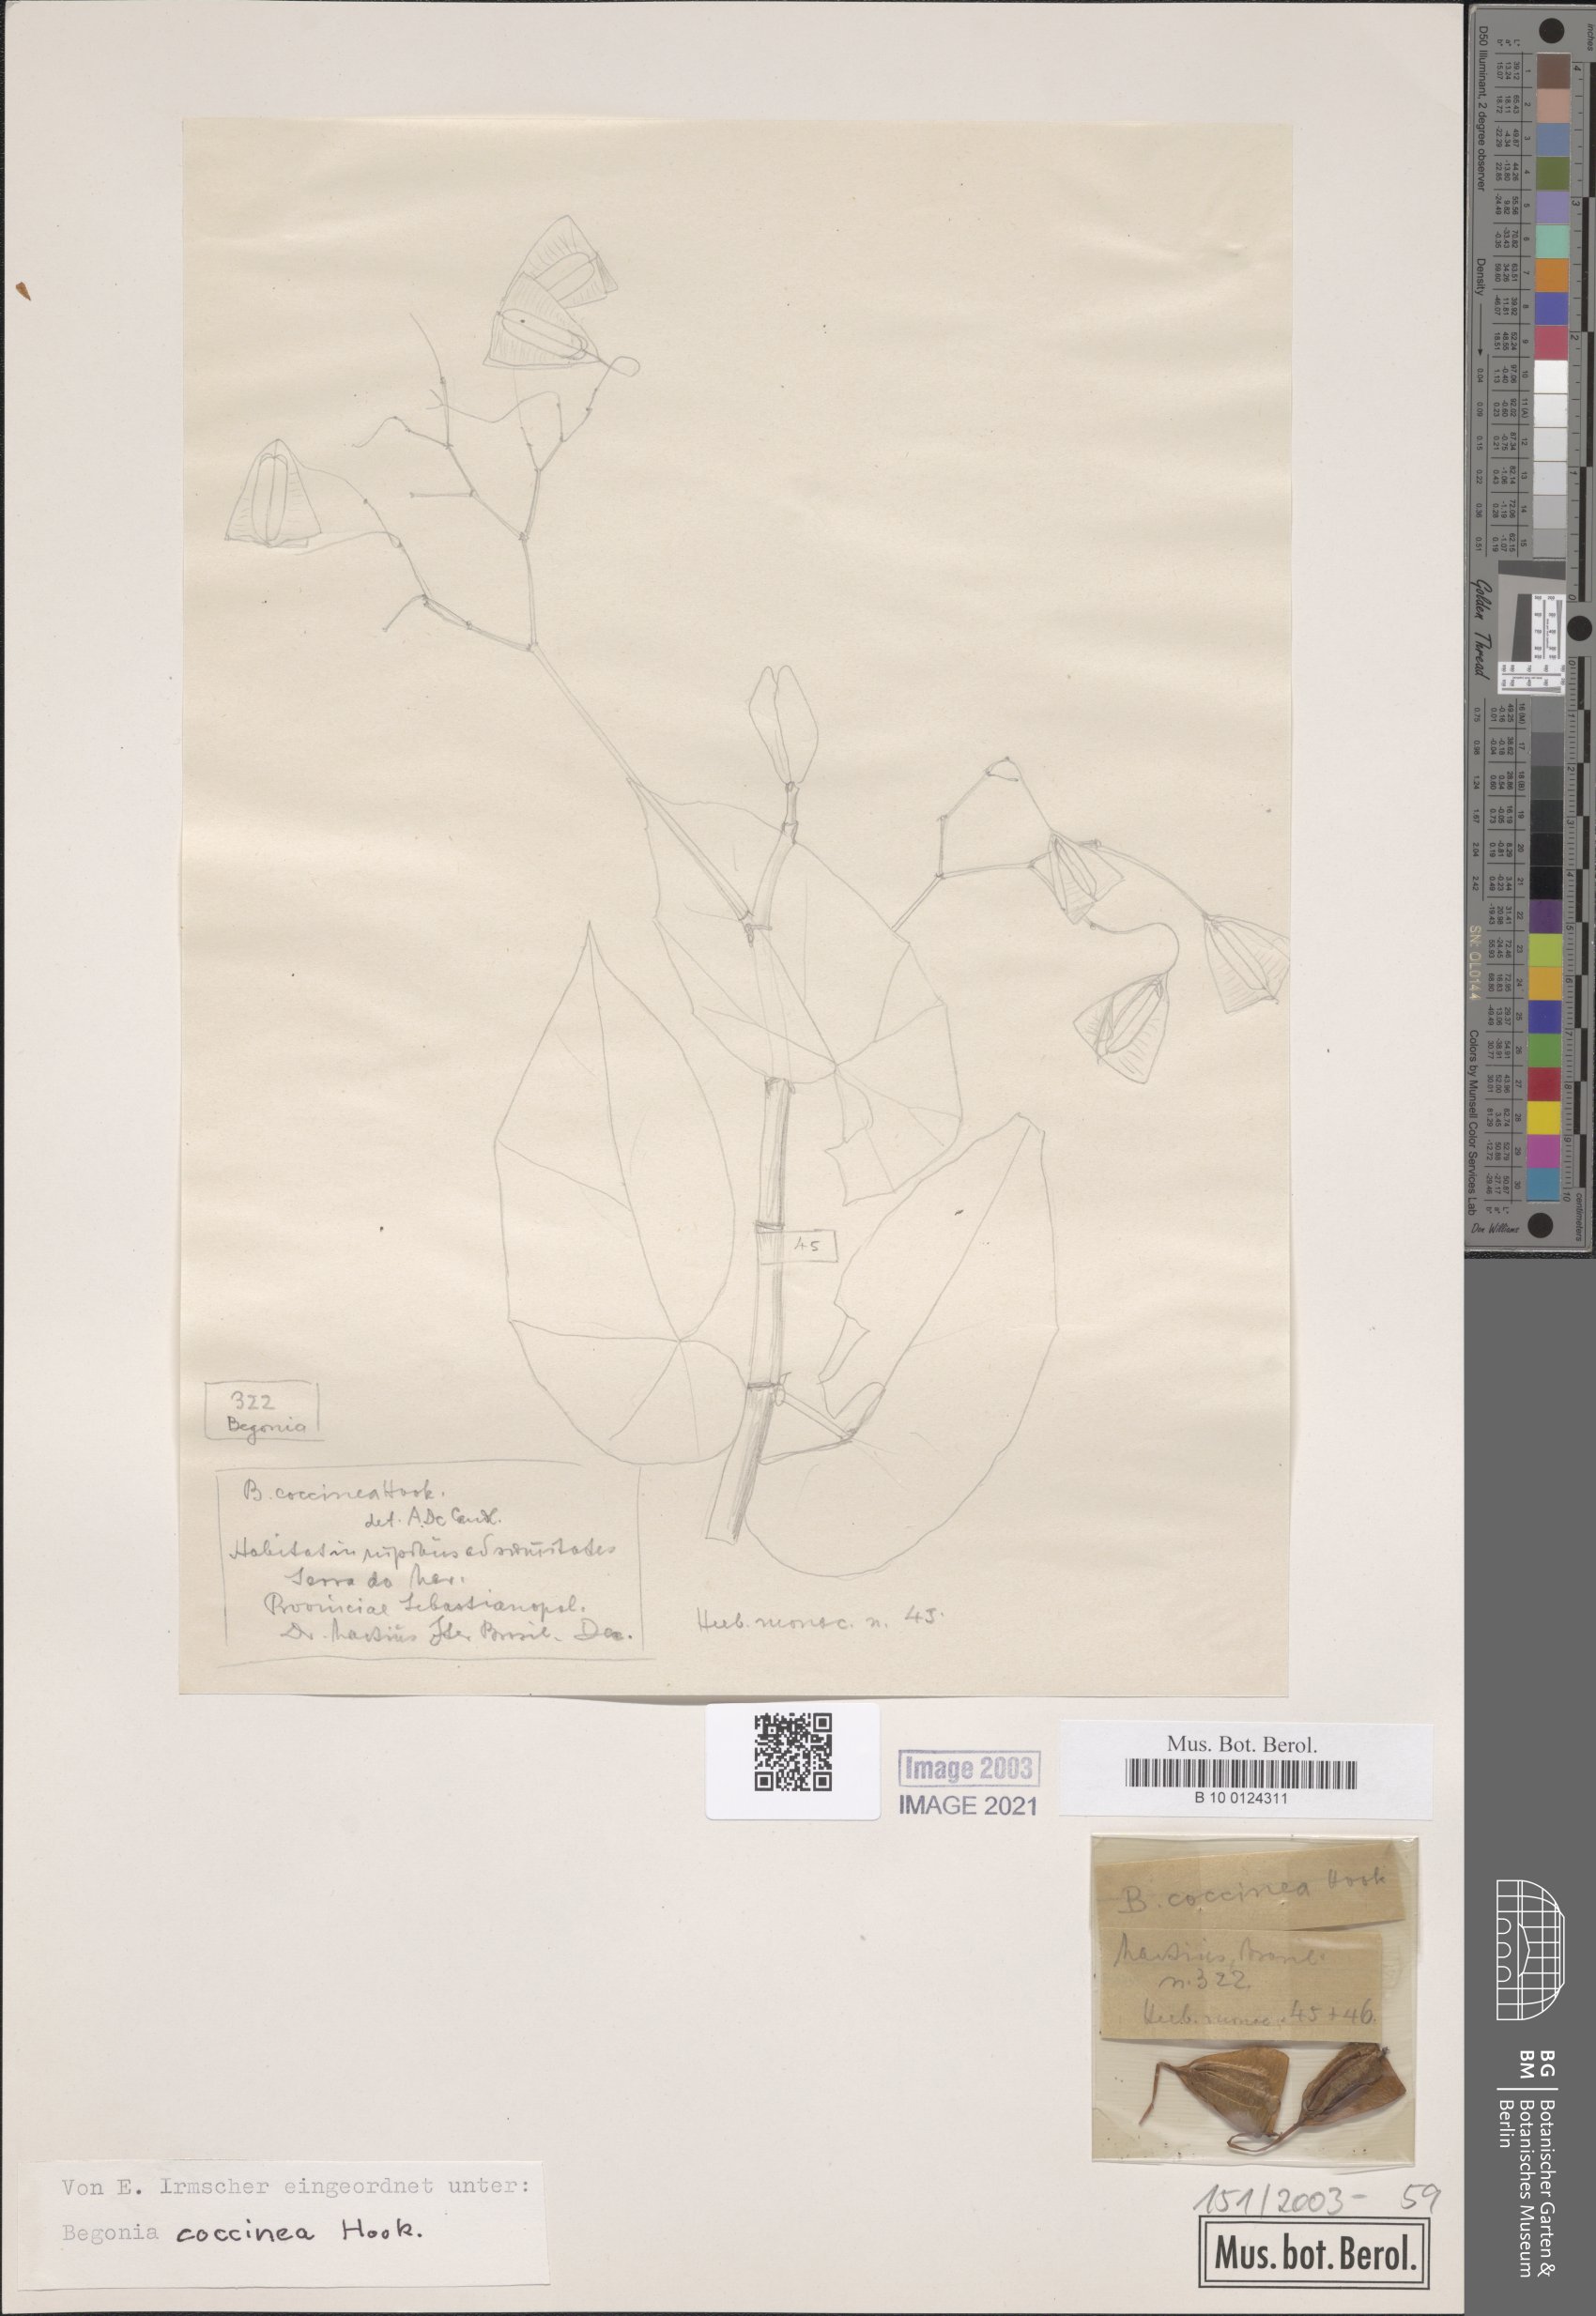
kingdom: Plantae
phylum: Tracheophyta
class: Magnoliopsida
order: Cucurbitales
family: Begoniaceae
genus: Begonia
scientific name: Begonia coccinea
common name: Angel-wing begonia
